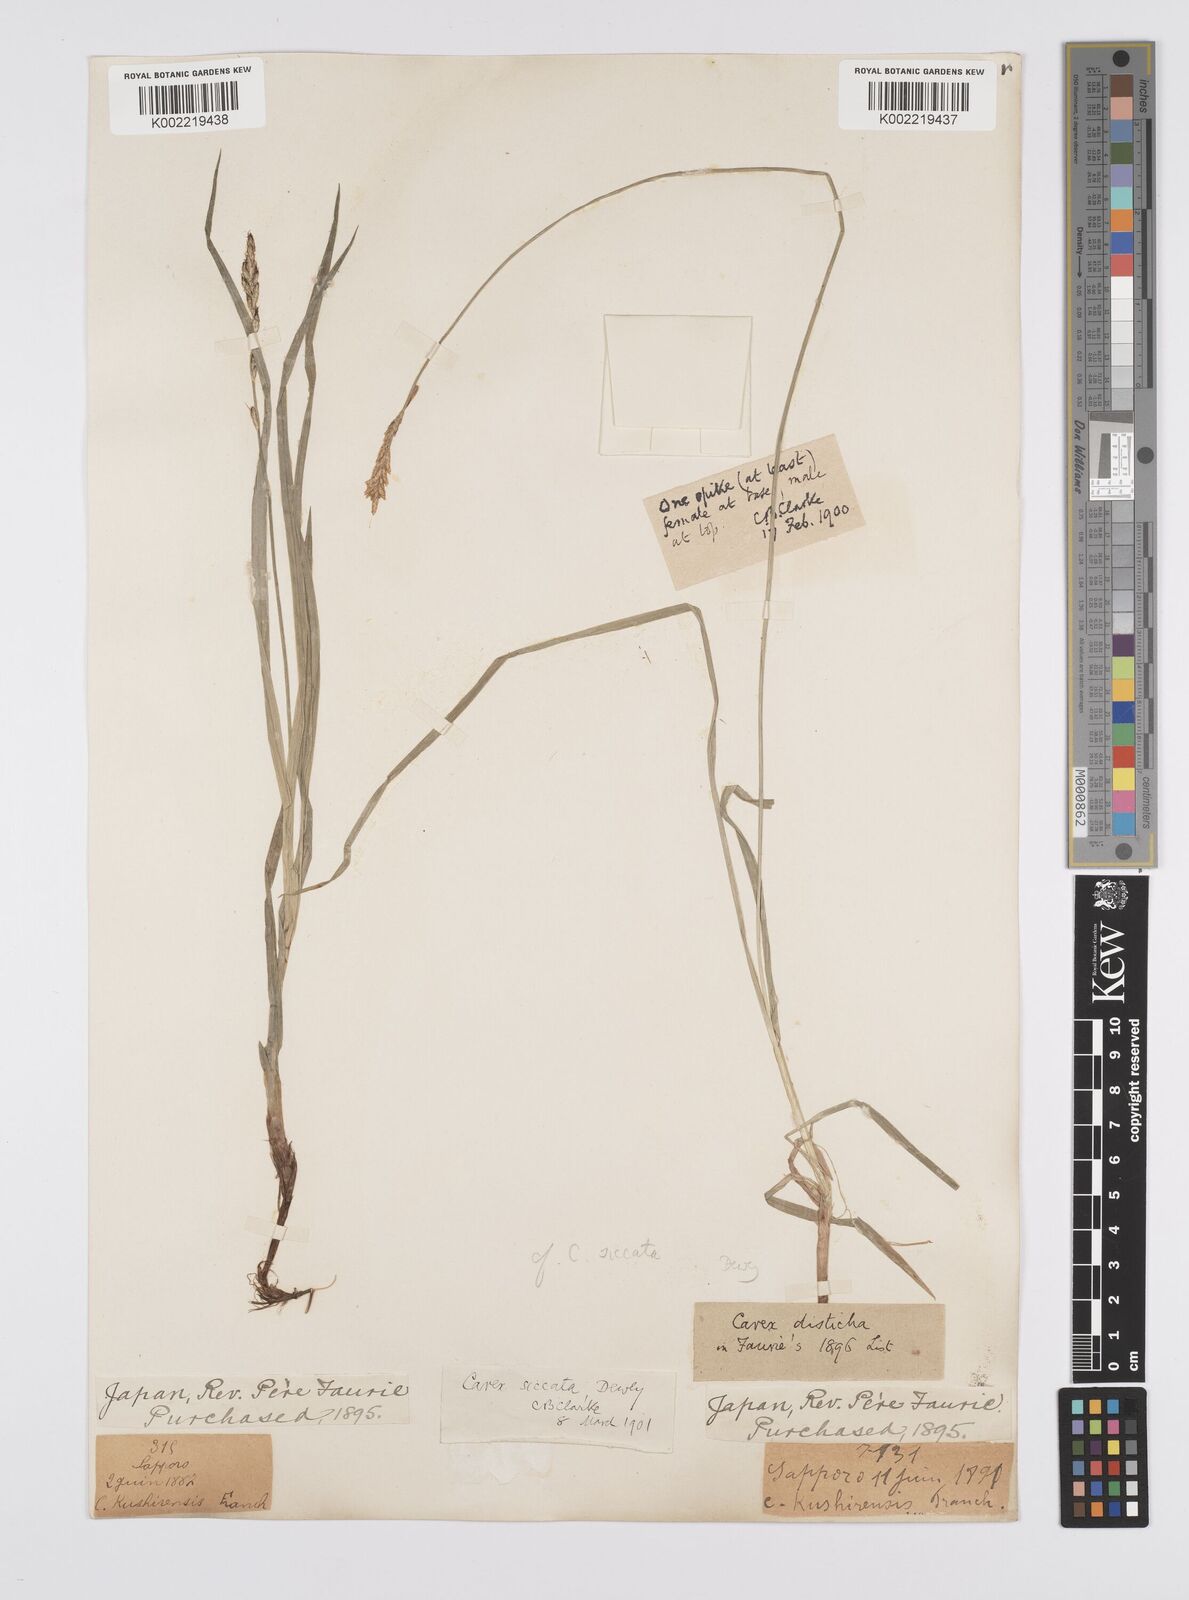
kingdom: Plantae
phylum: Tracheophyta
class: Liliopsida
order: Poales
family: Cyperaceae
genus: Carex
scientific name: Carex disticha
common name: Brown sedge
